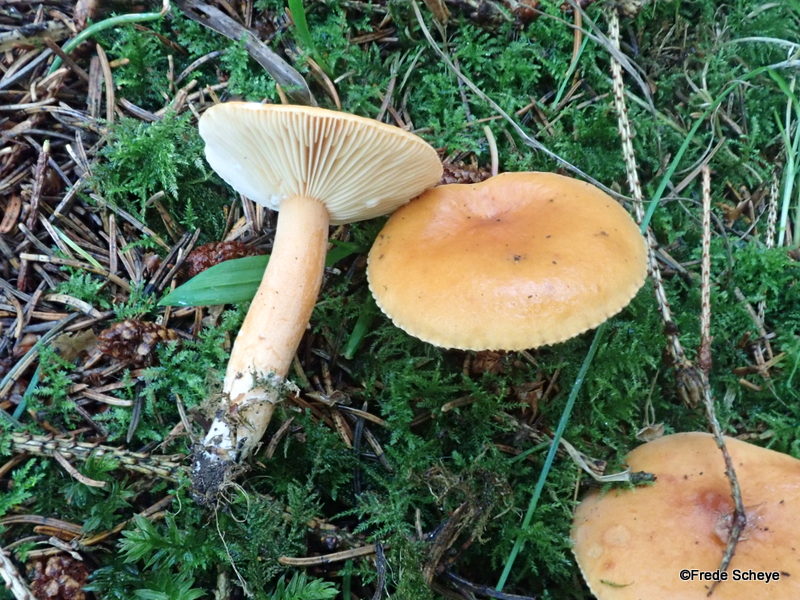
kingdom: Fungi
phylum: Basidiomycota
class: Agaricomycetes
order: Russulales
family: Russulaceae
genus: Lactarius
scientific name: Lactarius aurantiacus
